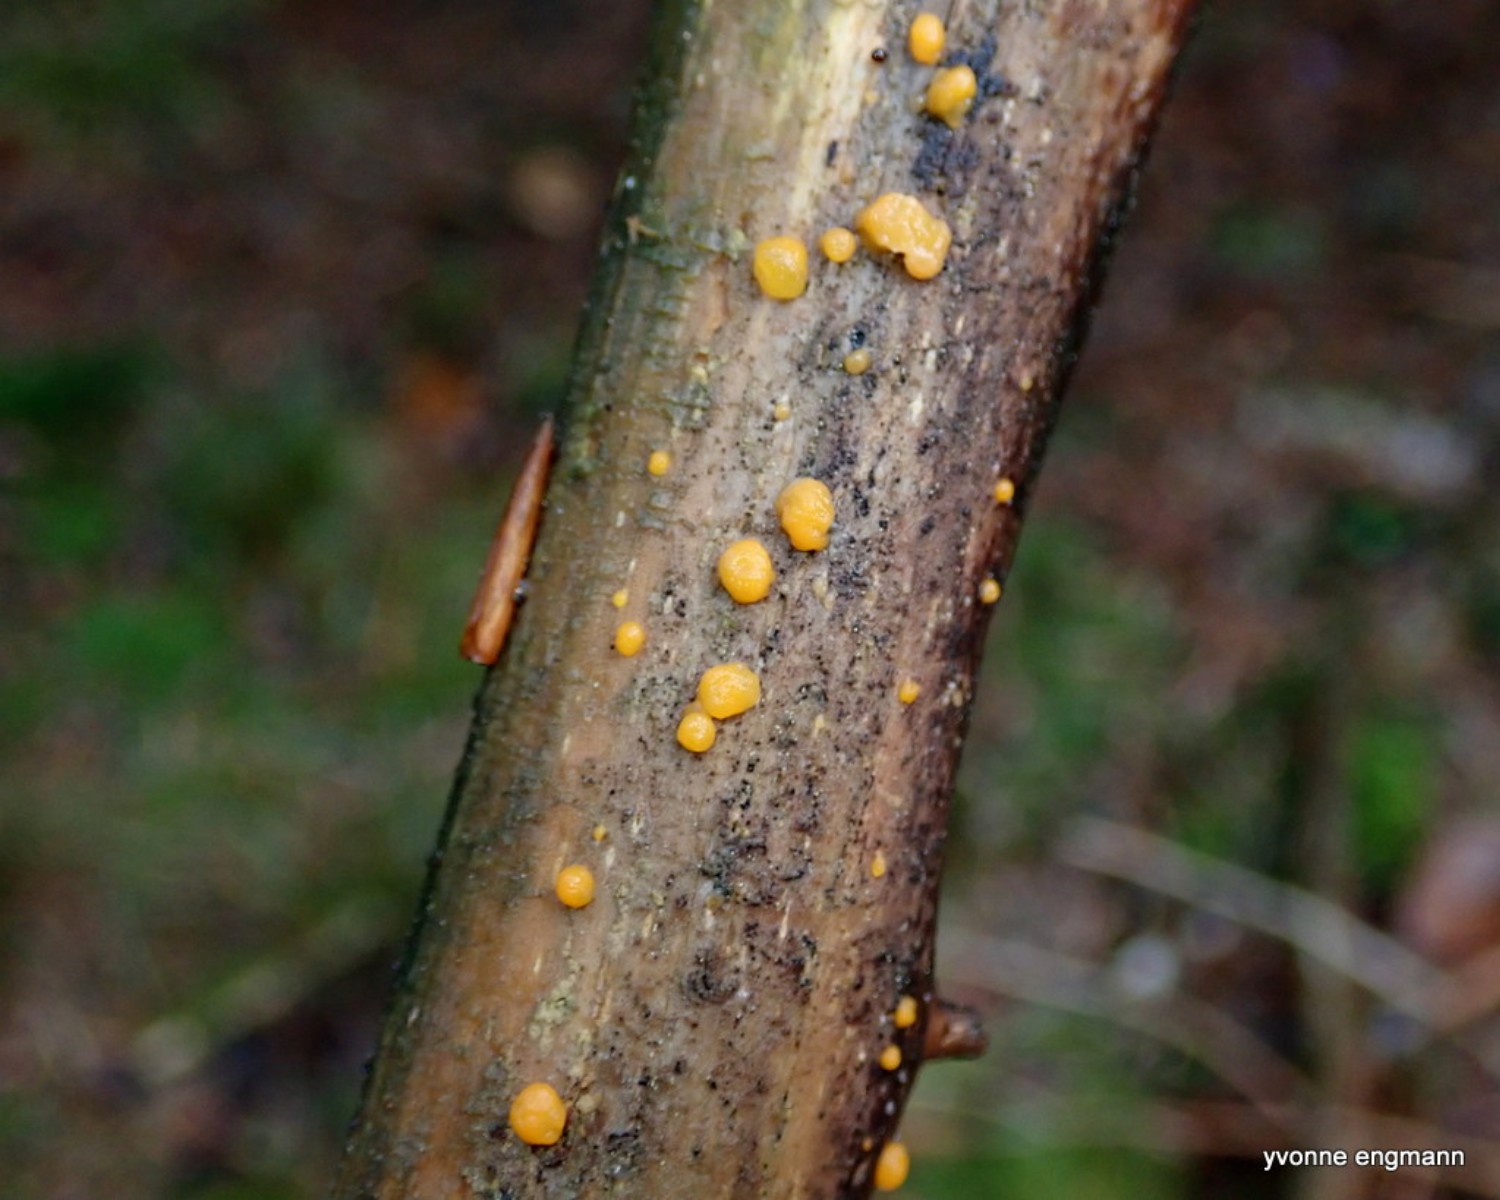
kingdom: Fungi
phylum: Basidiomycota
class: Dacrymycetes
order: Dacrymycetales
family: Dacrymycetaceae
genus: Dacrymyces
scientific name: Dacrymyces
